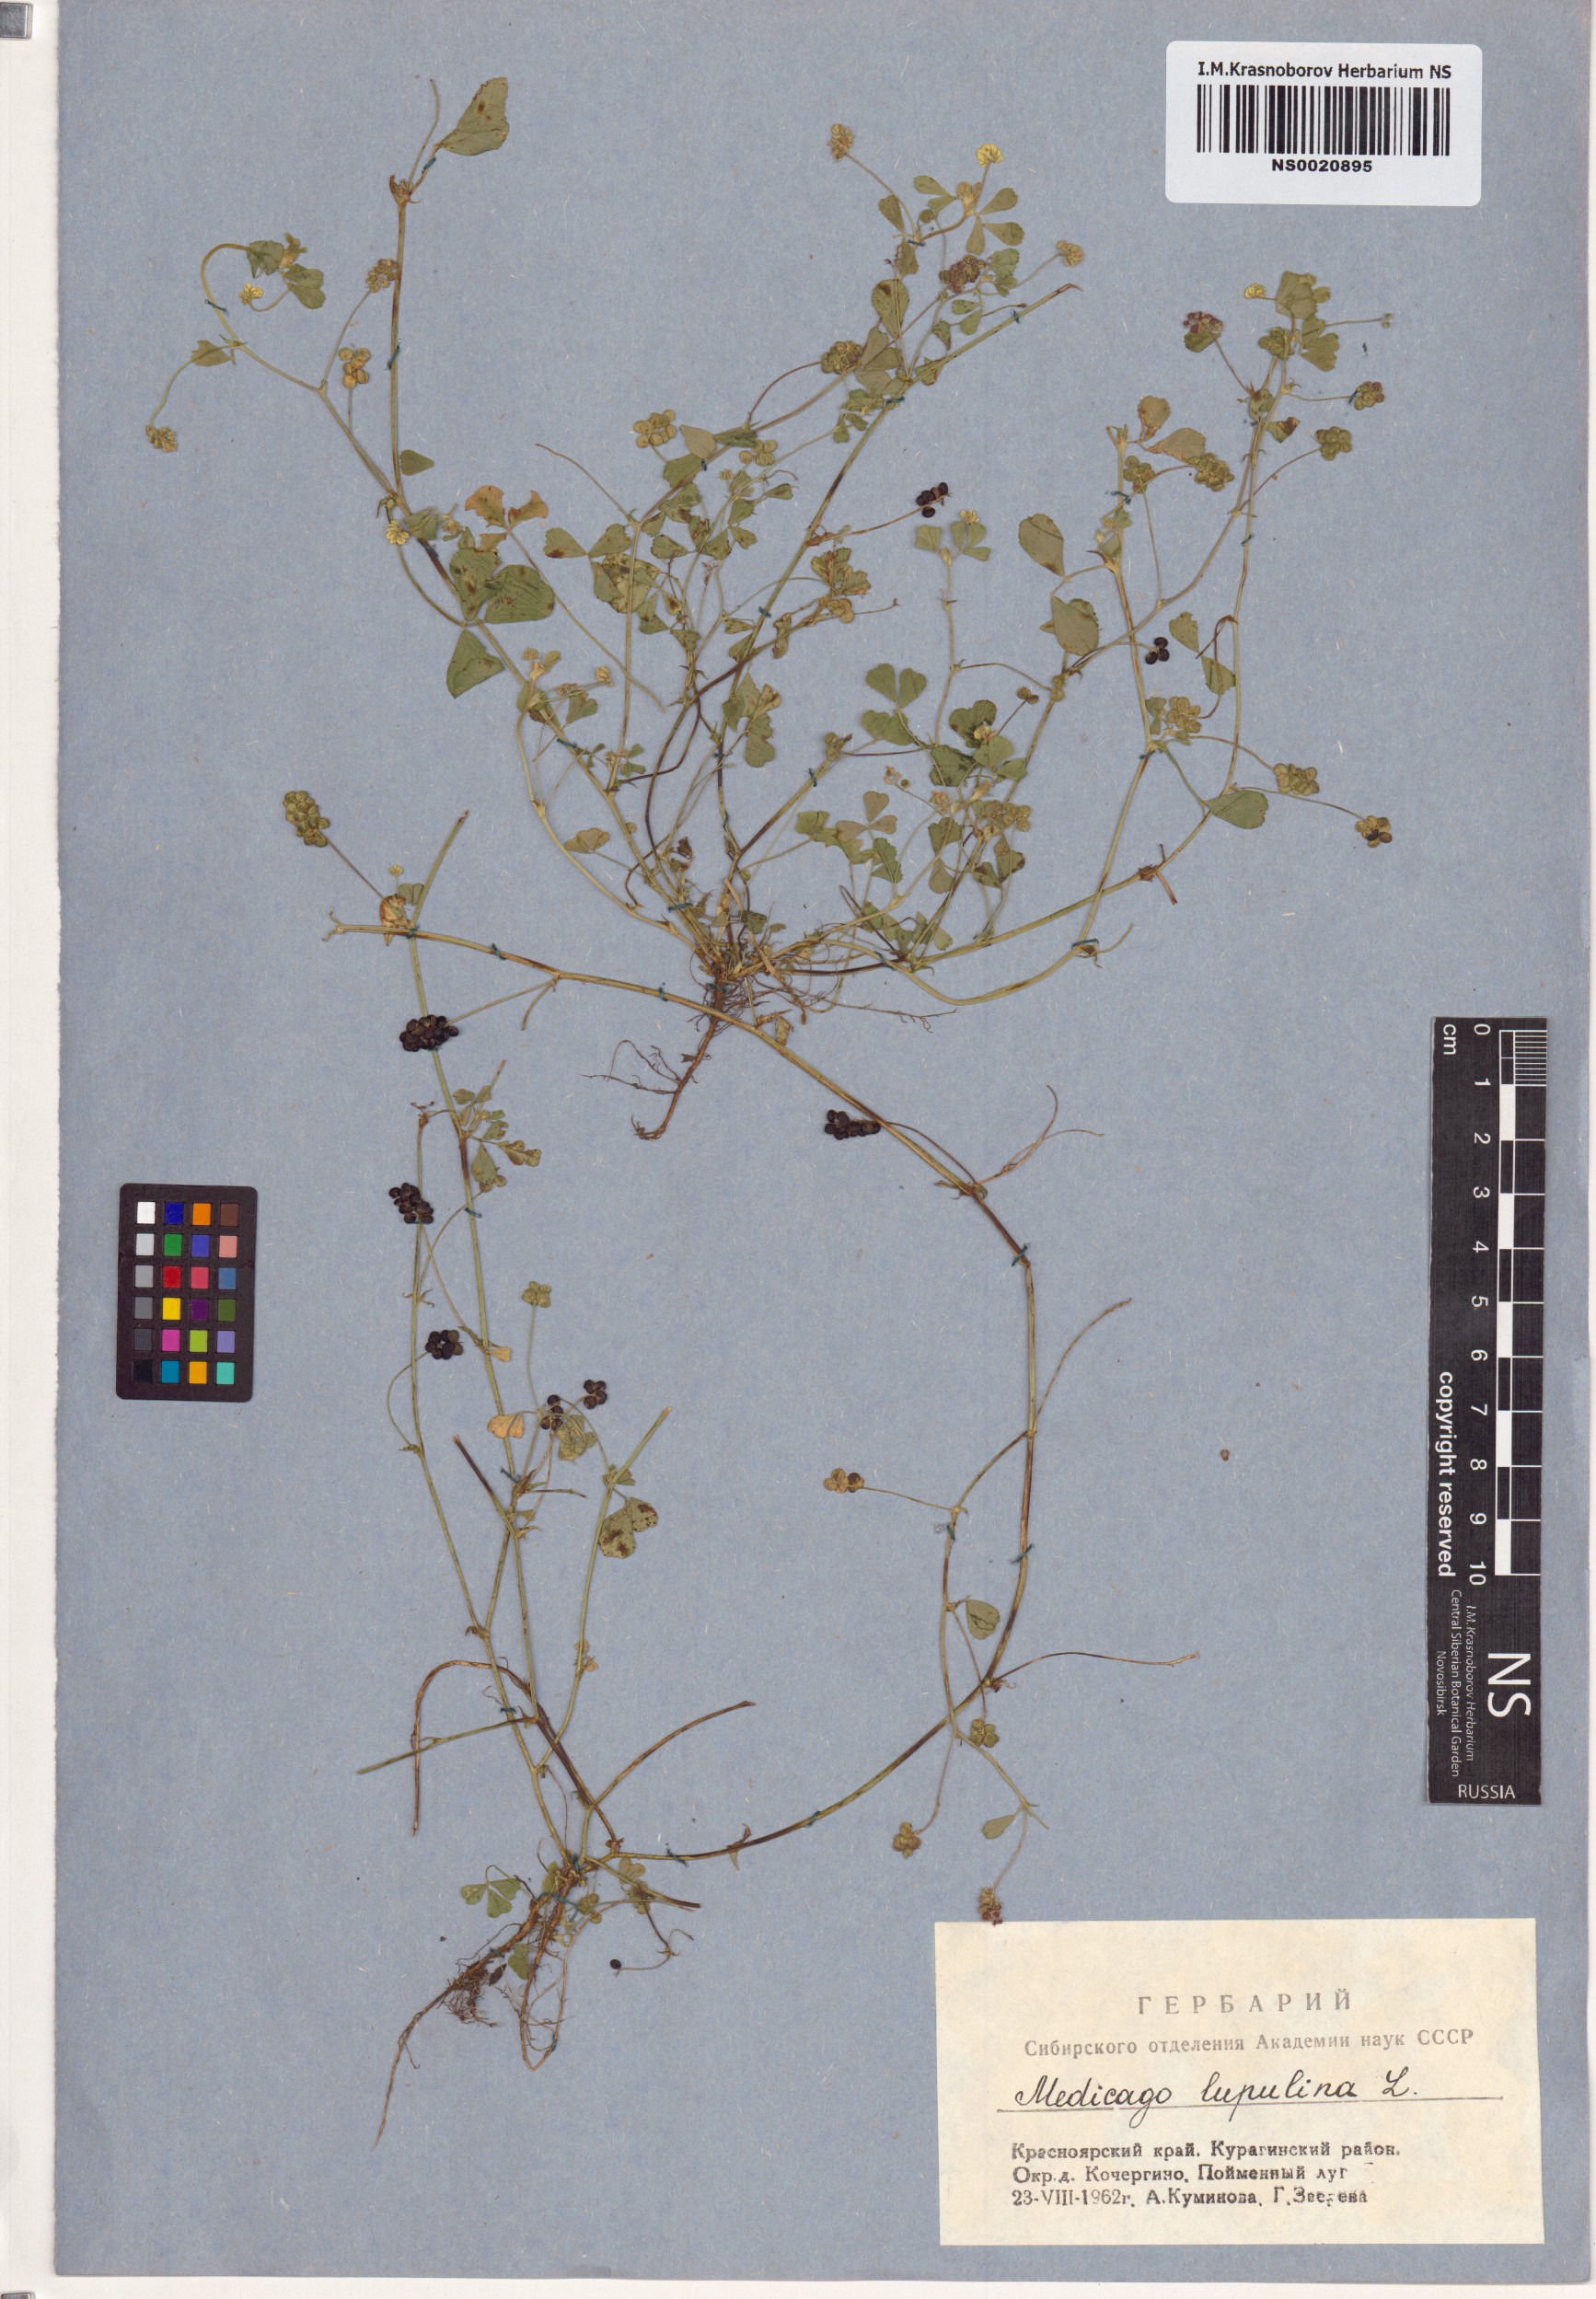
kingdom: Plantae
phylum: Tracheophyta
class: Magnoliopsida
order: Fabales
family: Fabaceae
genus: Medicago
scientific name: Medicago lupulina
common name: Black medick
